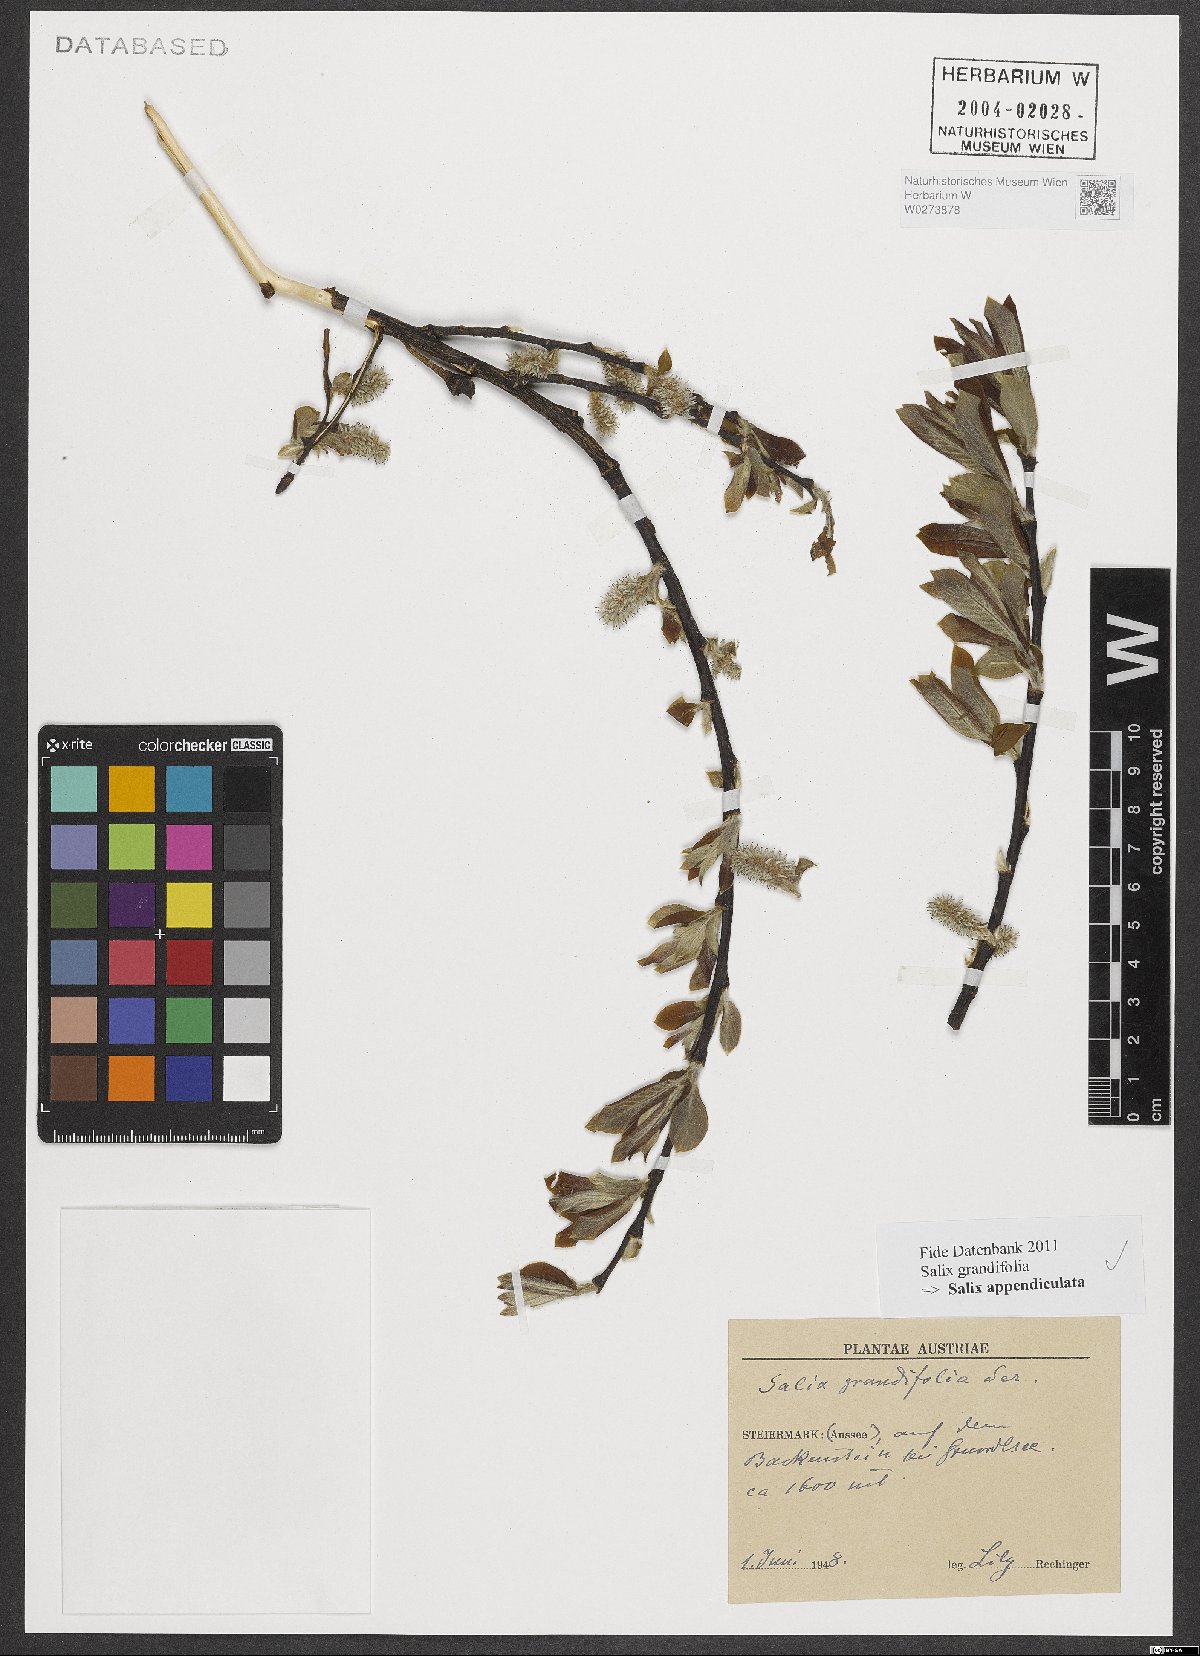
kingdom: Plantae
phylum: Tracheophyta
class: Magnoliopsida
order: Malpighiales
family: Salicaceae
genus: Salix
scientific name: Salix appendiculata
